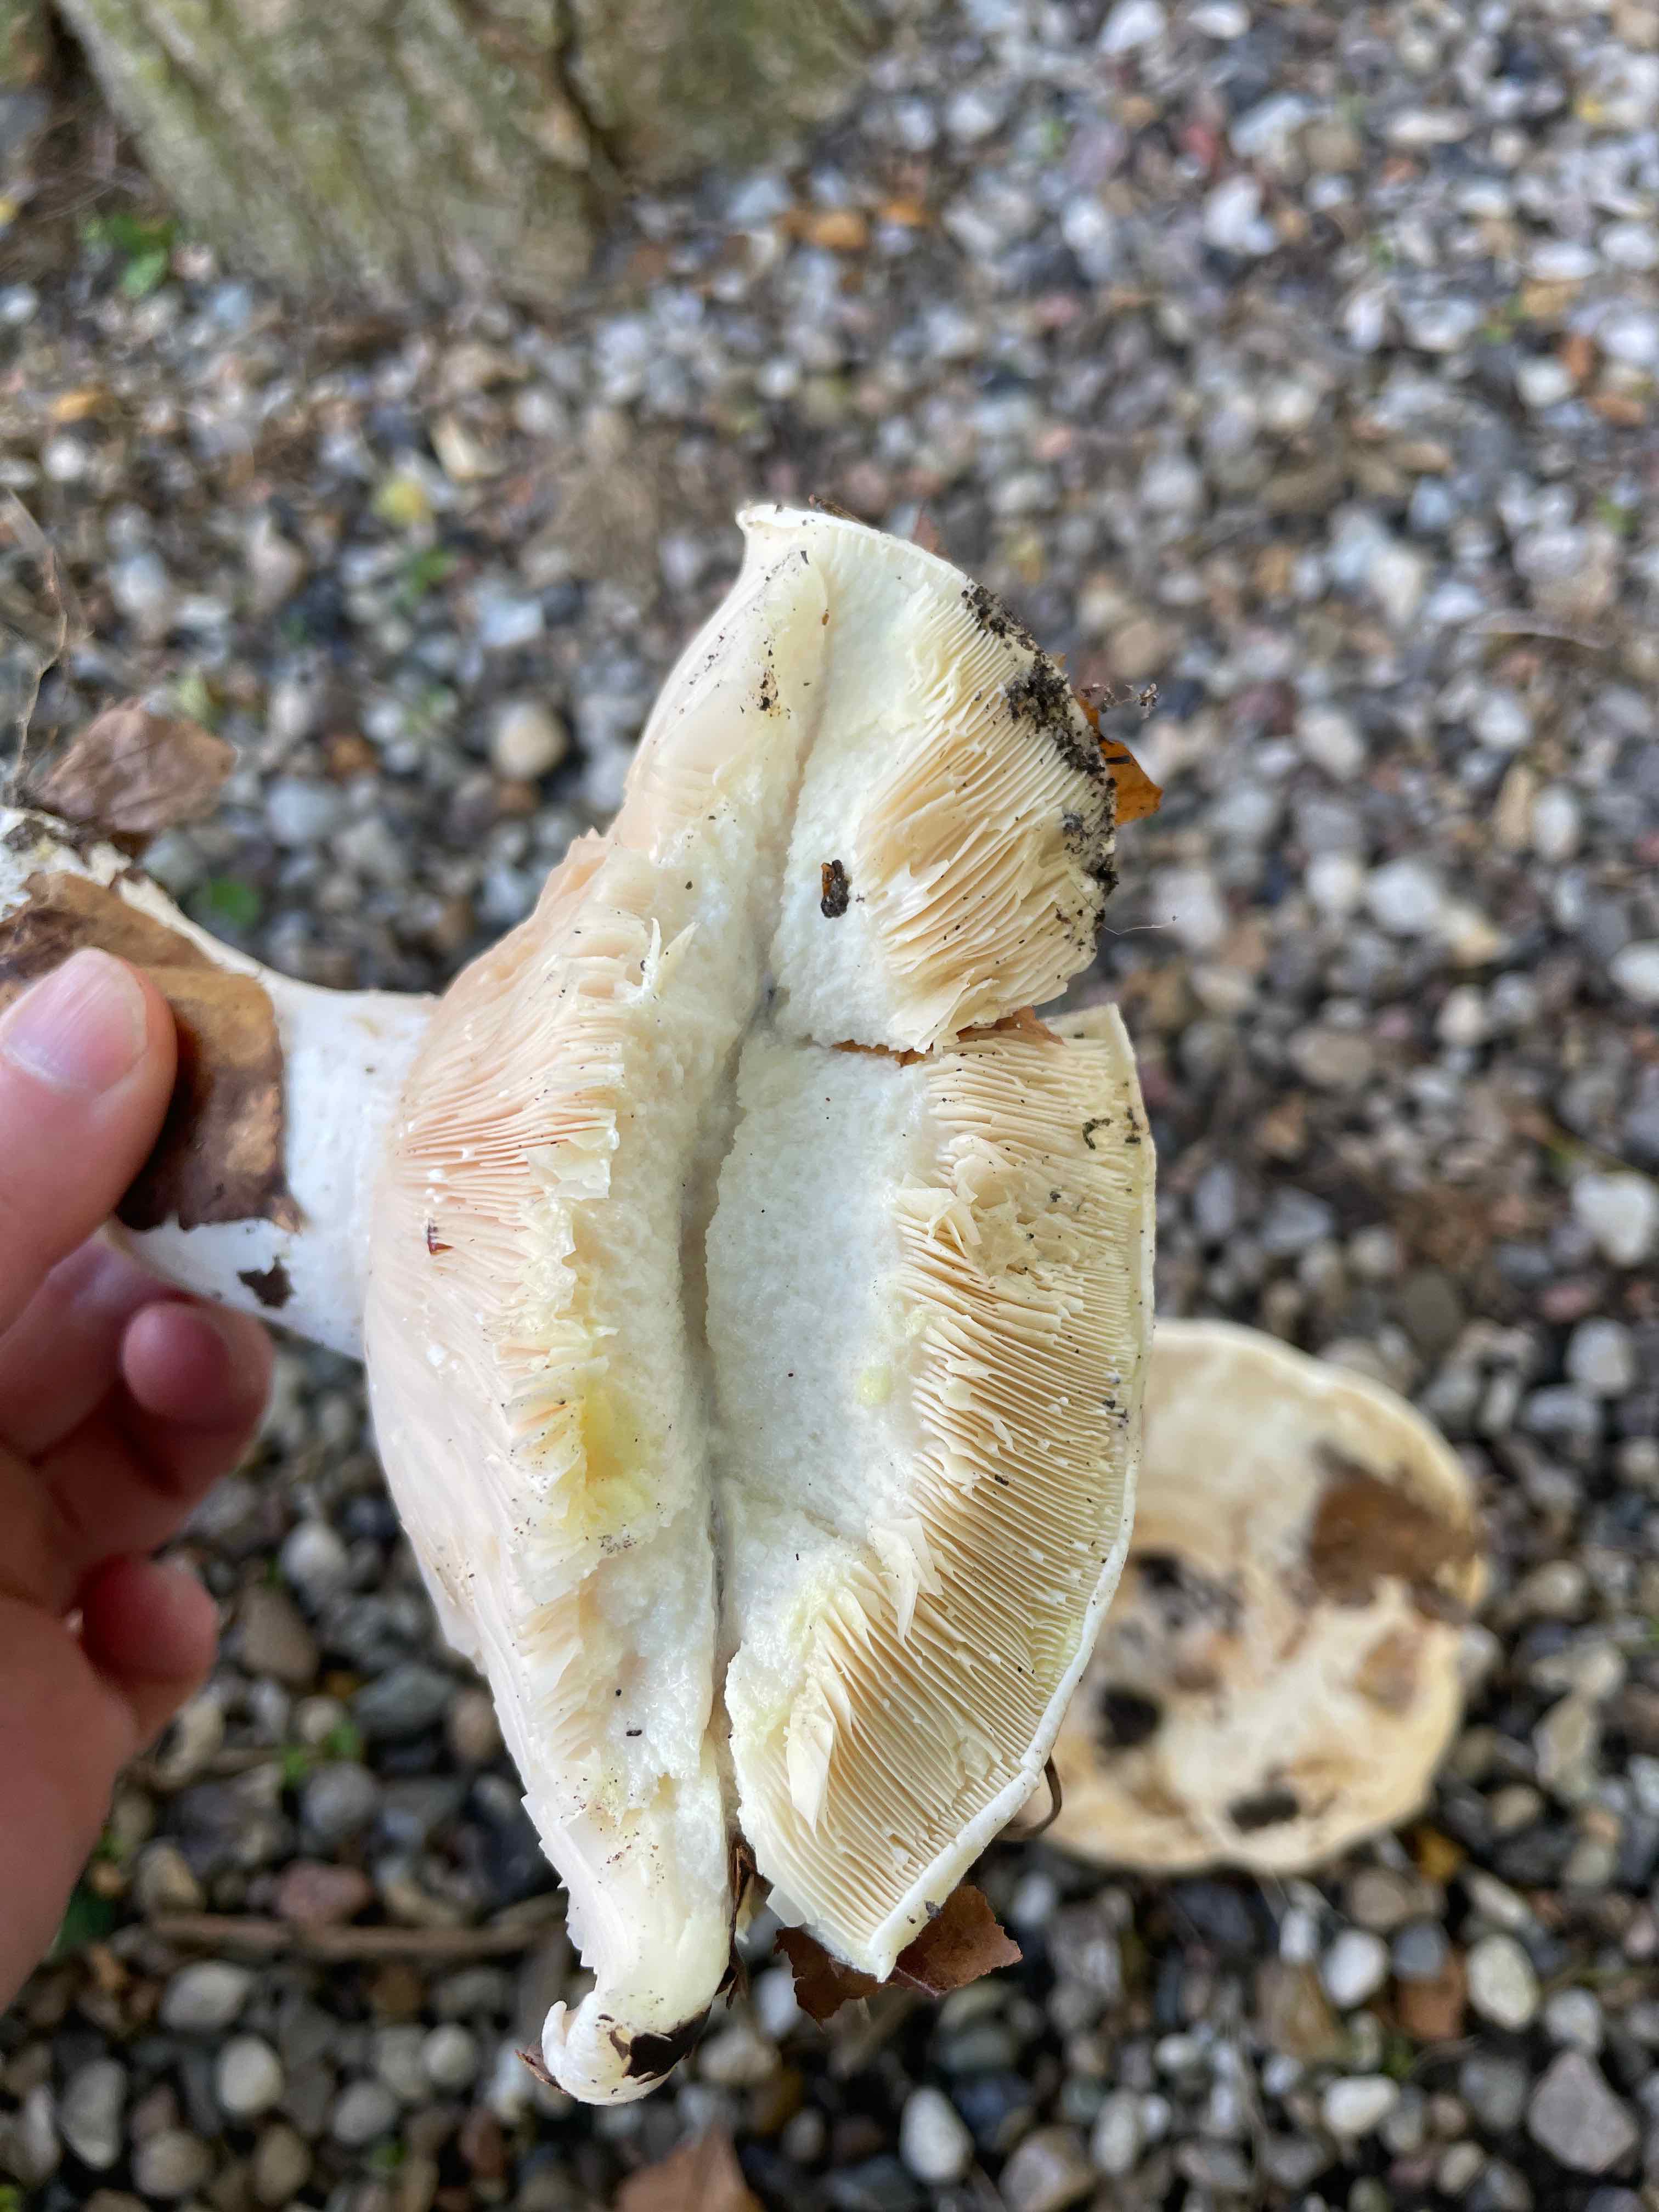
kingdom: Fungi
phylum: Basidiomycota
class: Agaricomycetes
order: Russulales
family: Russulaceae
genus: Lactifluus
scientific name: Lactifluus
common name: mælkehat
